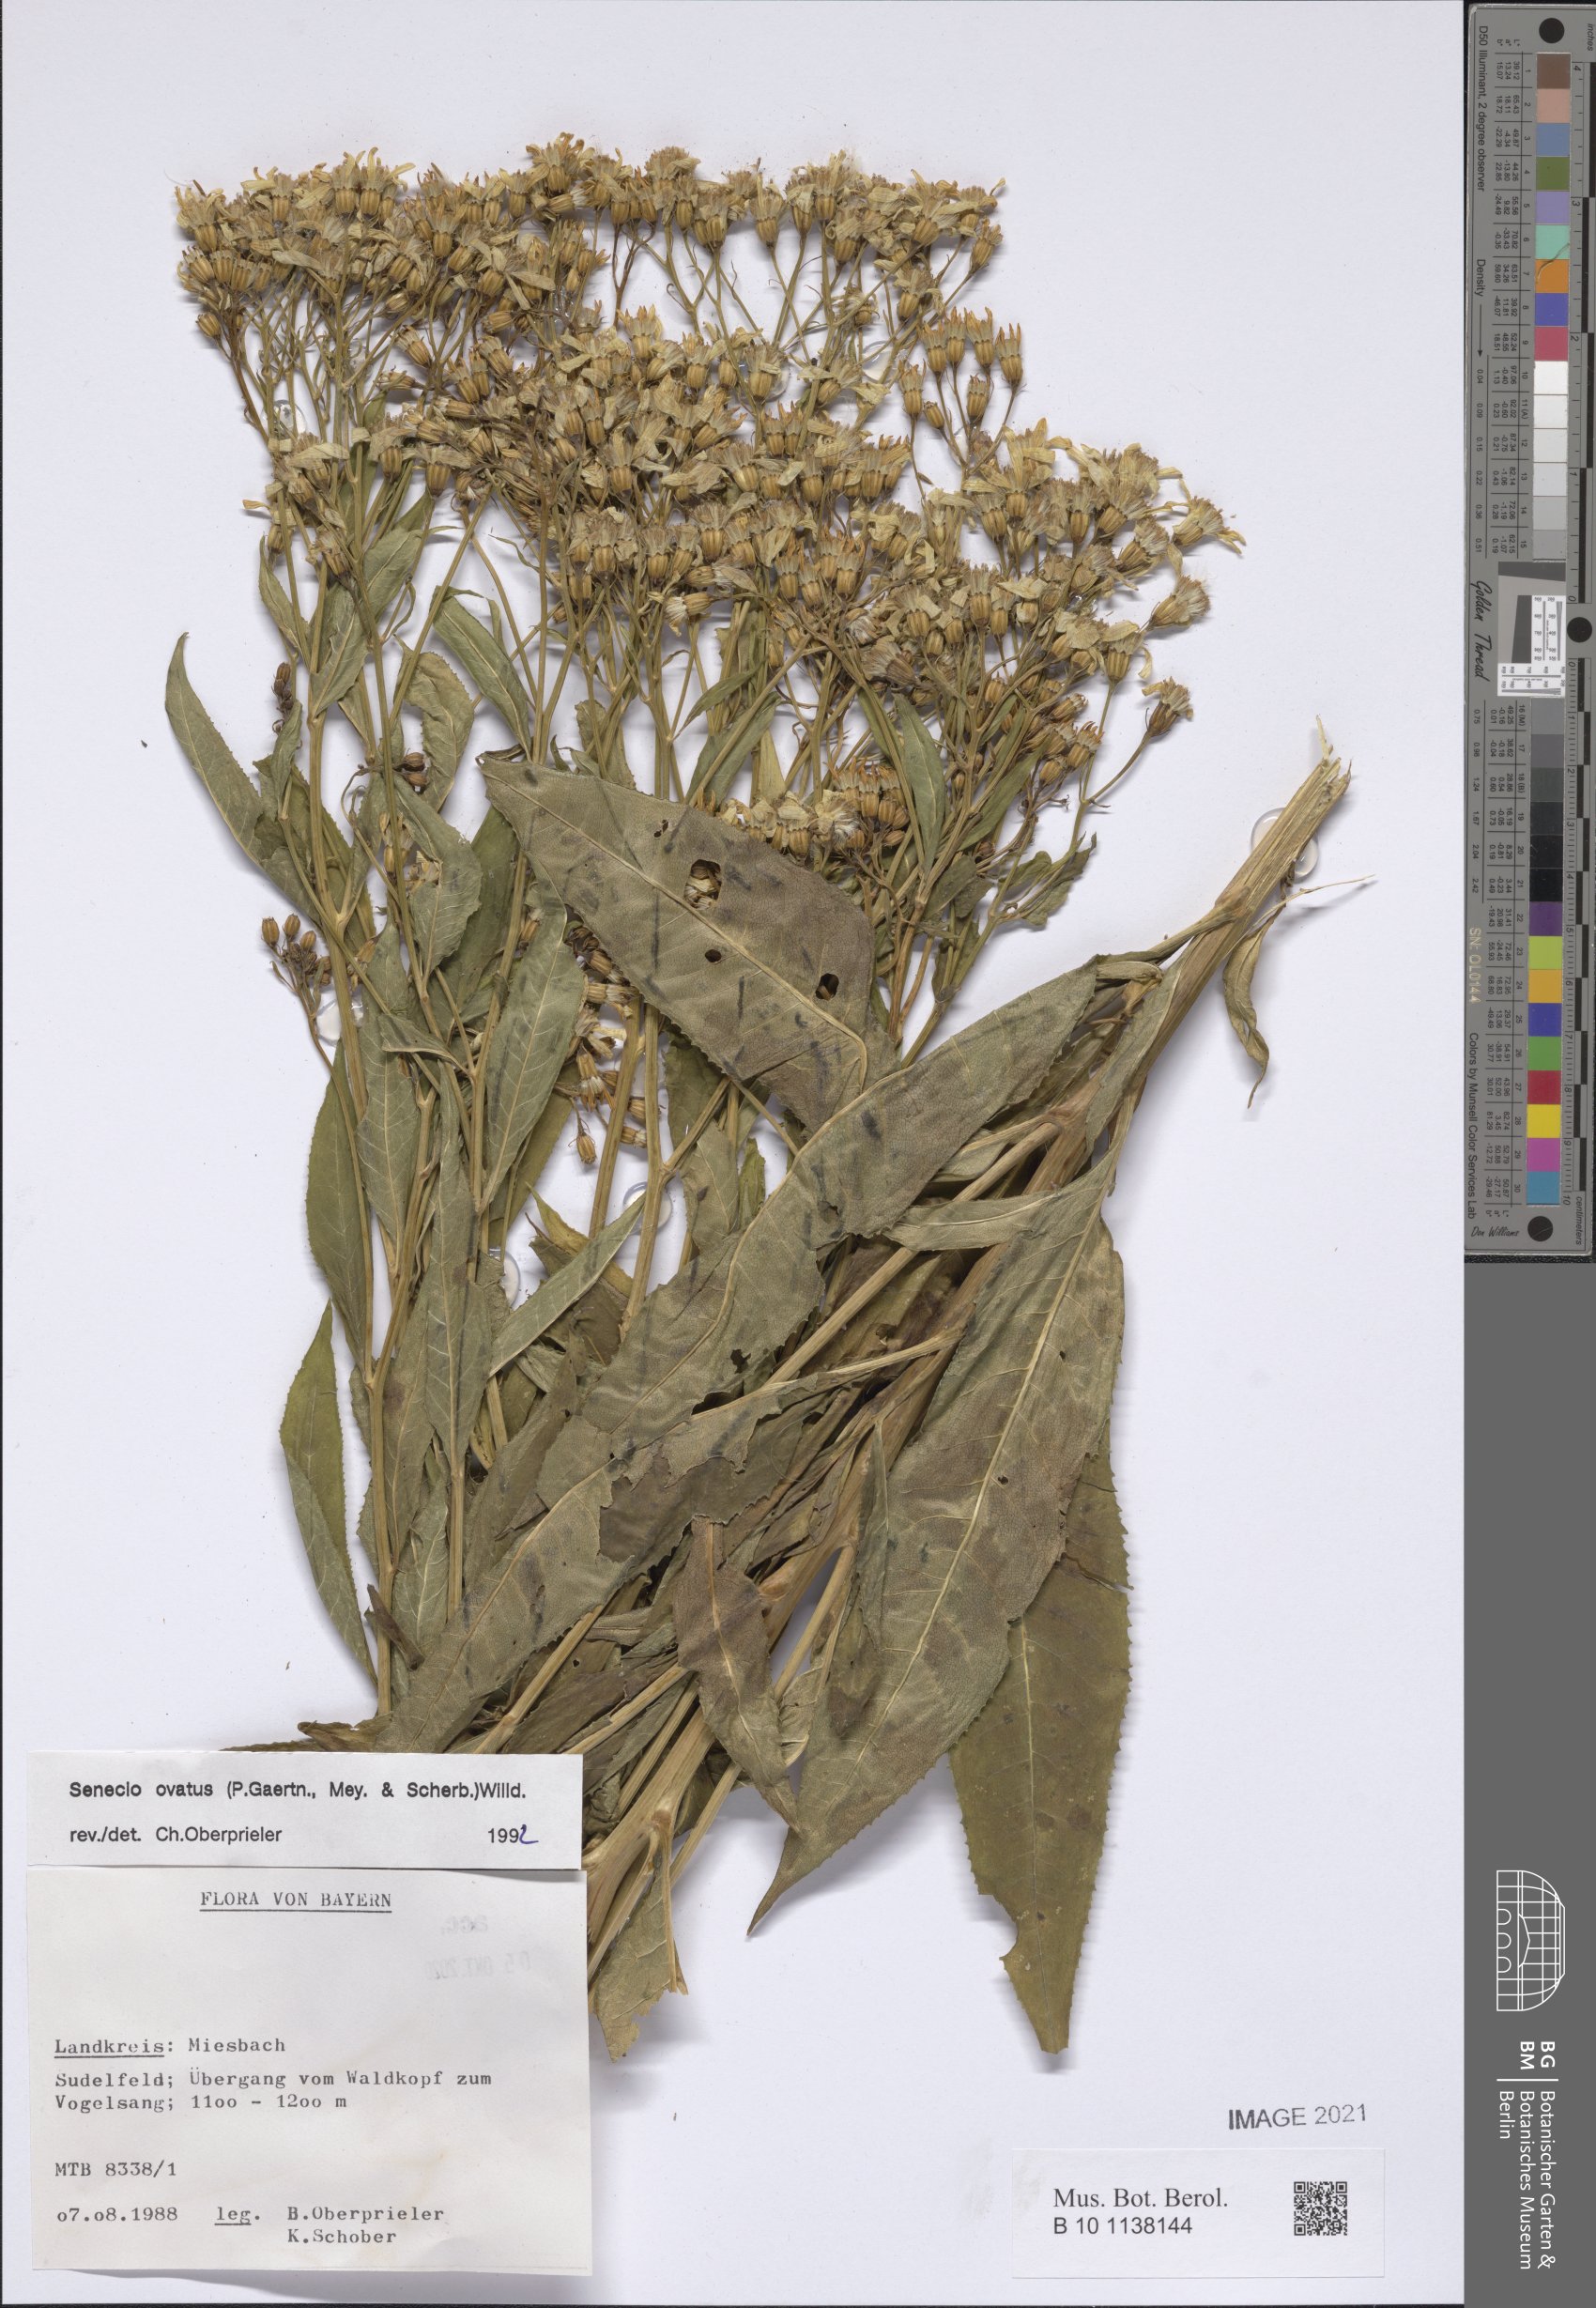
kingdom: Plantae
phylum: Tracheophyta
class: Magnoliopsida
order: Asterales
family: Asteraceae
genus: Senecio
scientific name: Senecio ovatus
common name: Wood ragwort
